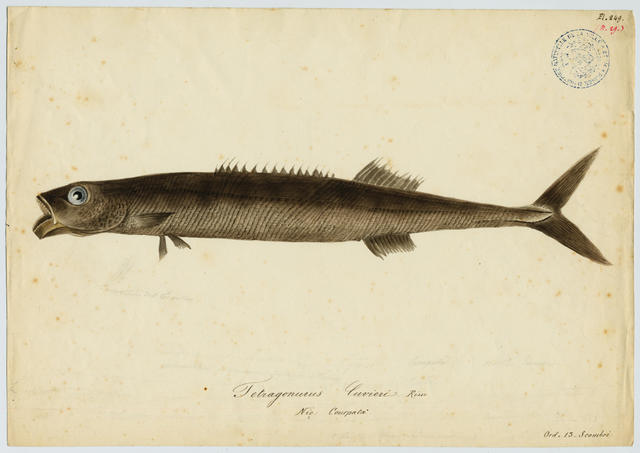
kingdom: Animalia
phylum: Chordata
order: Perciformes
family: Tetragonuridae
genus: Tetragonurus
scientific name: Tetragonurus cuvieri
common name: Smalleye squaretail
